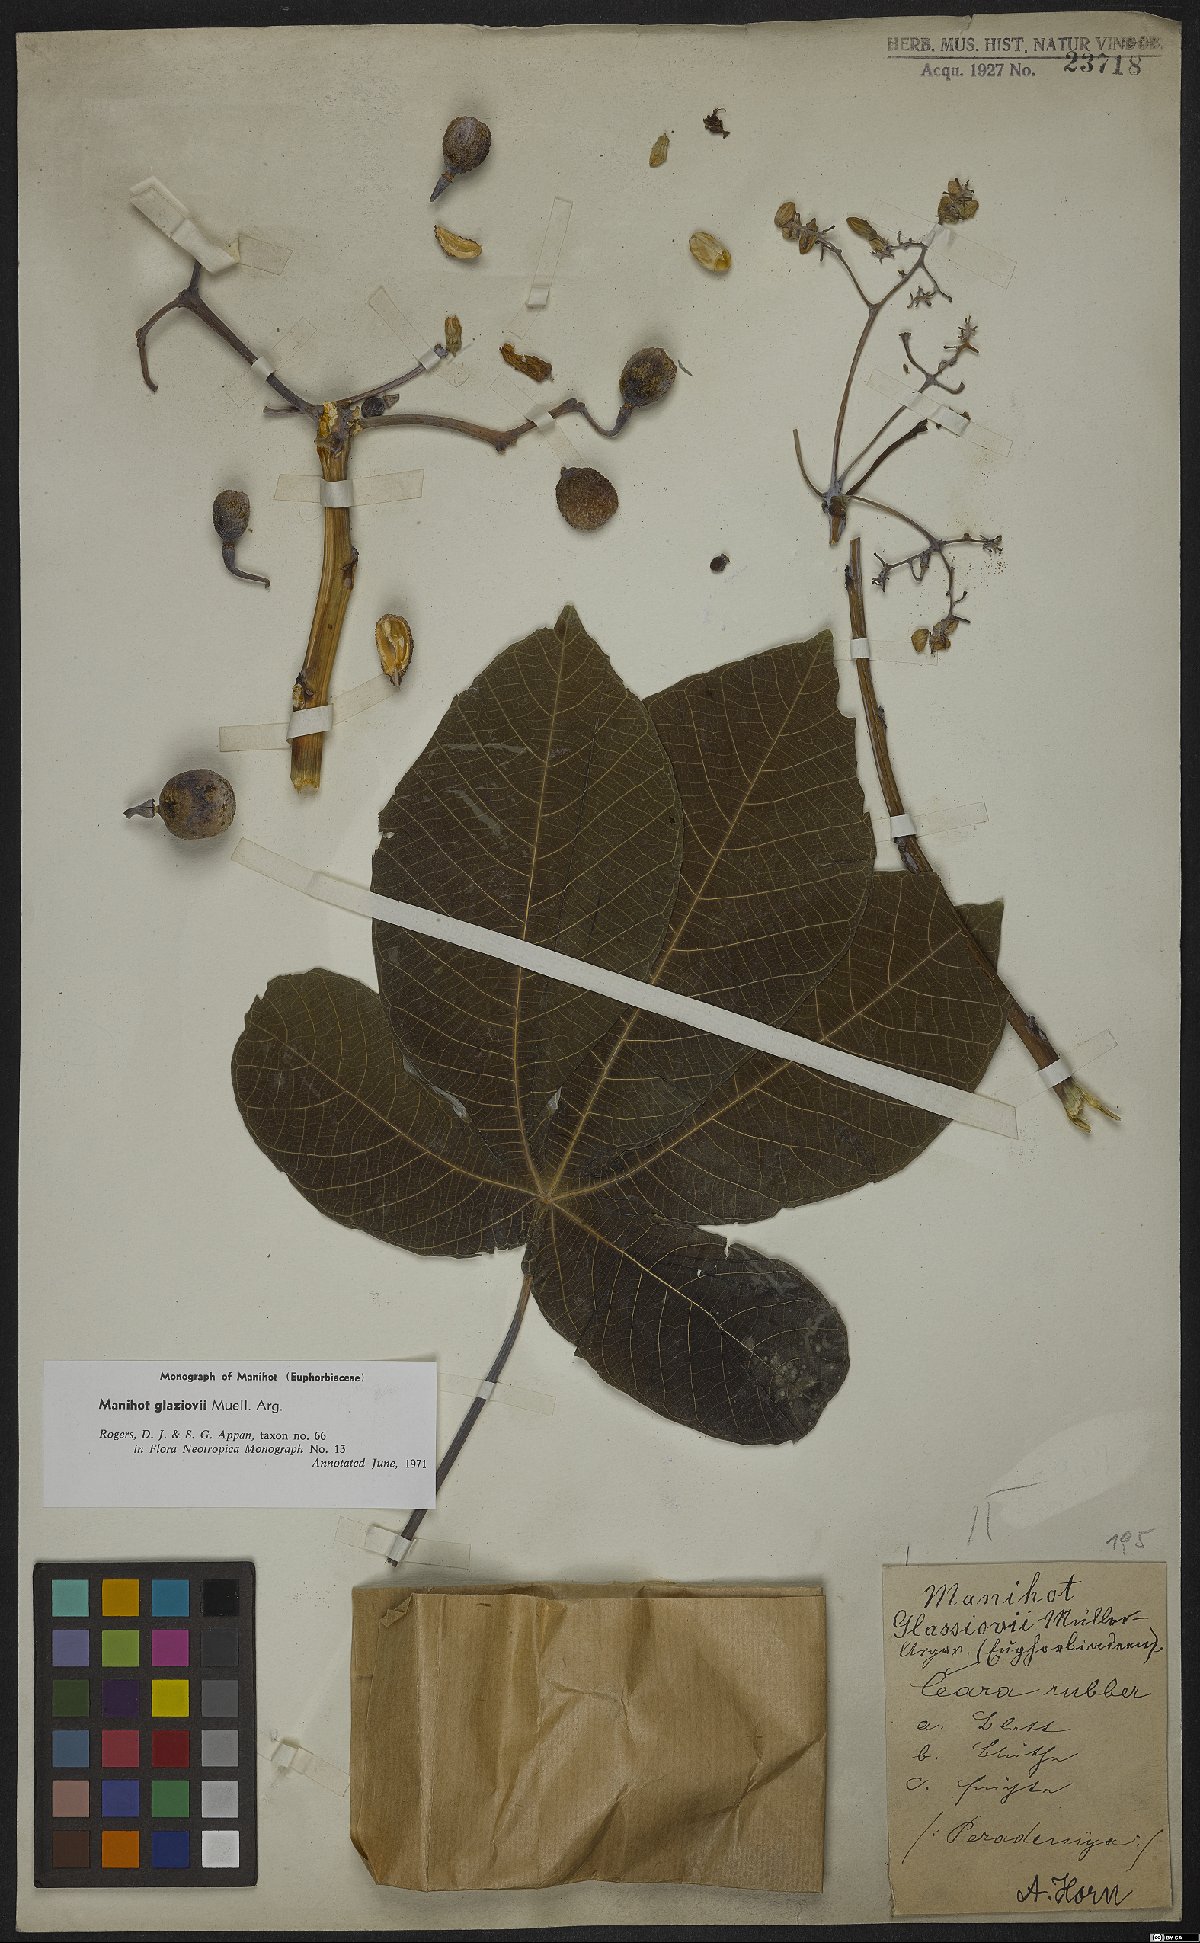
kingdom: Plantae
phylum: Tracheophyta
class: Magnoliopsida
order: Malpighiales
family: Euphorbiaceae
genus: Manihot
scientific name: Manihot carthagenensis
